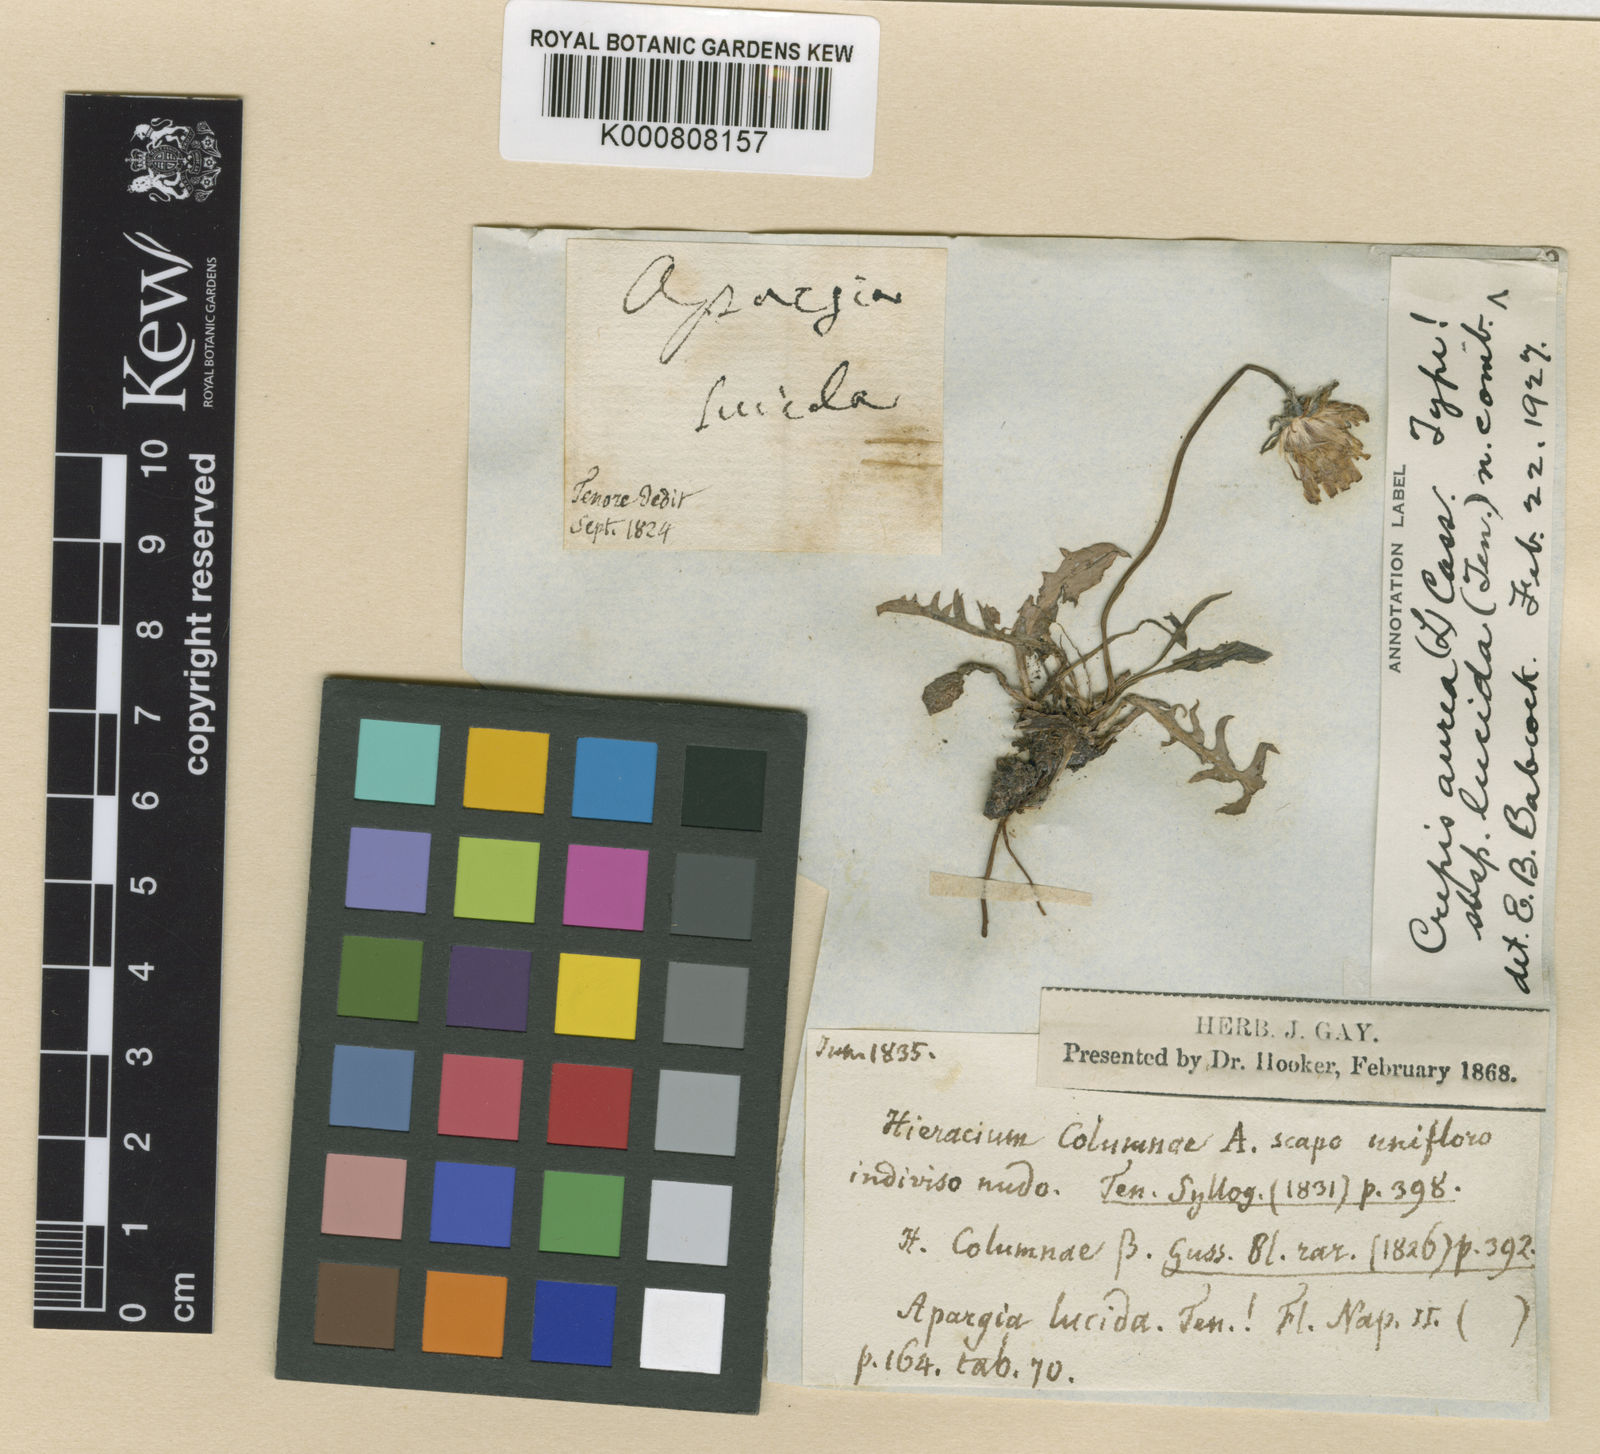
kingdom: Plantae
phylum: Tracheophyta
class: Magnoliopsida
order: Asterales
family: Asteraceae
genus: Crepis
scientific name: Crepis
